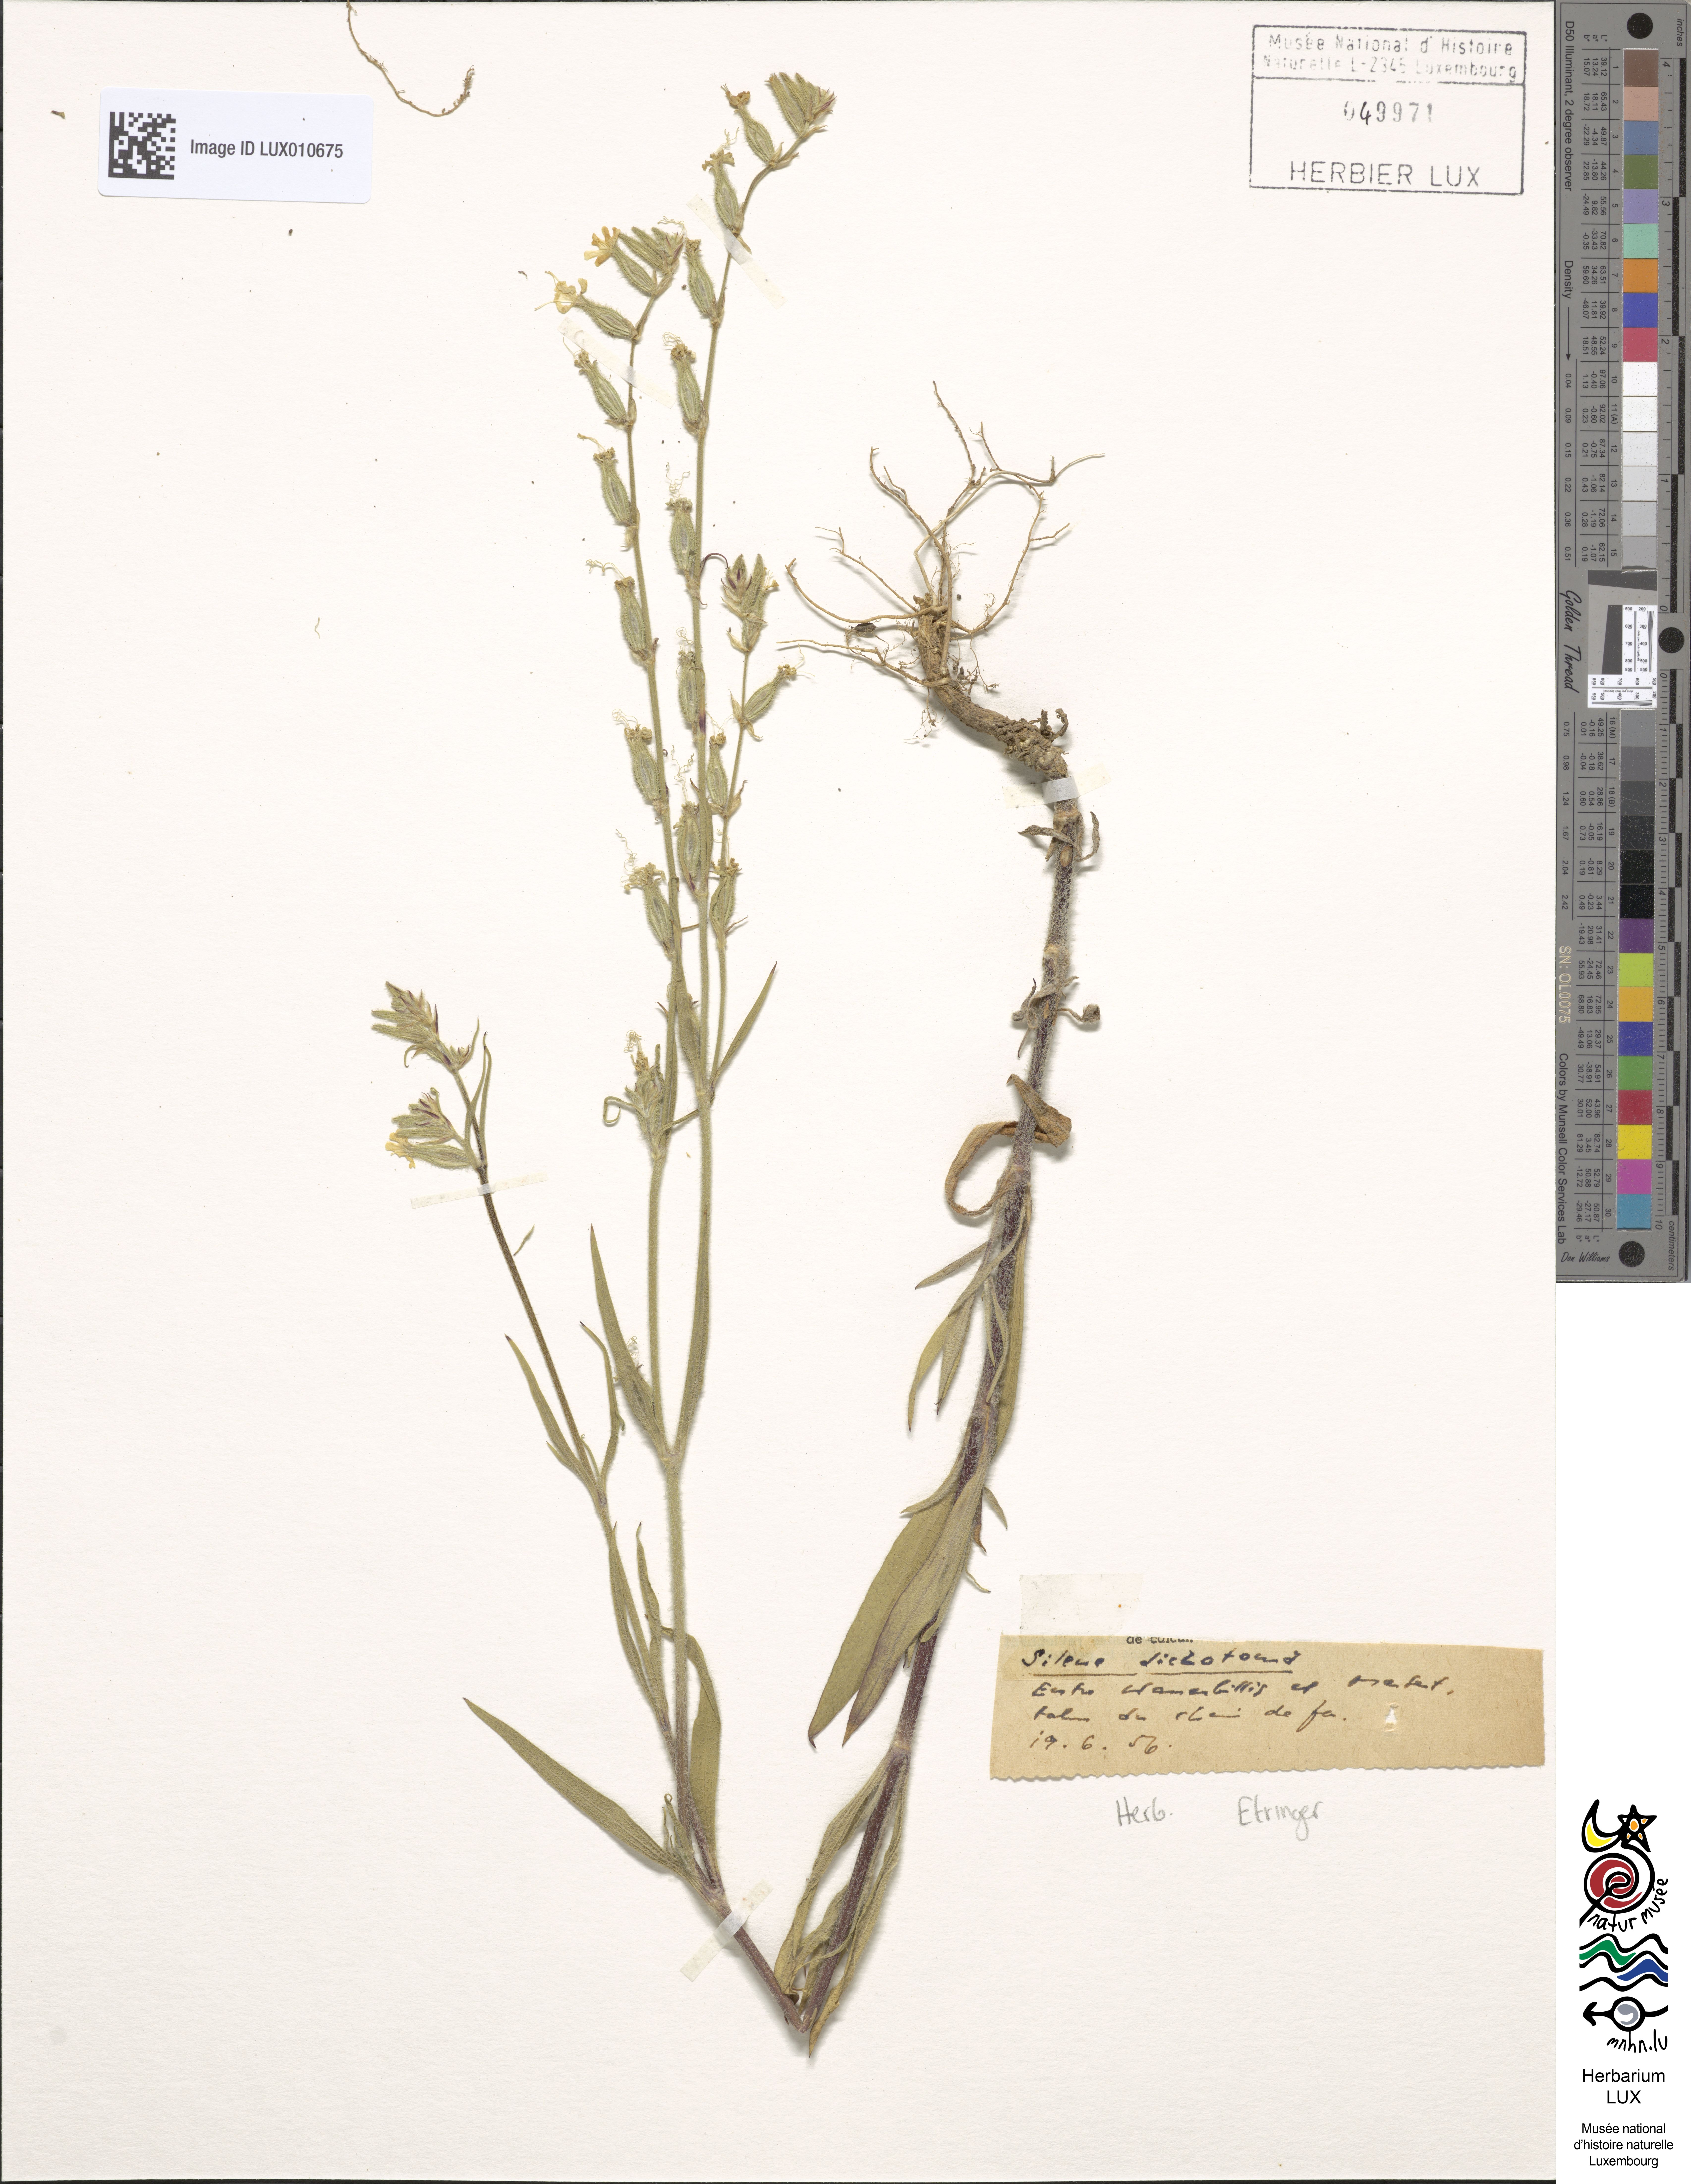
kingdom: Plantae
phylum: Tracheophyta
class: Magnoliopsida
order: Caryophyllales
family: Caryophyllaceae
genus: Silene
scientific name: Silene dichotoma
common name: Forked catchfly
